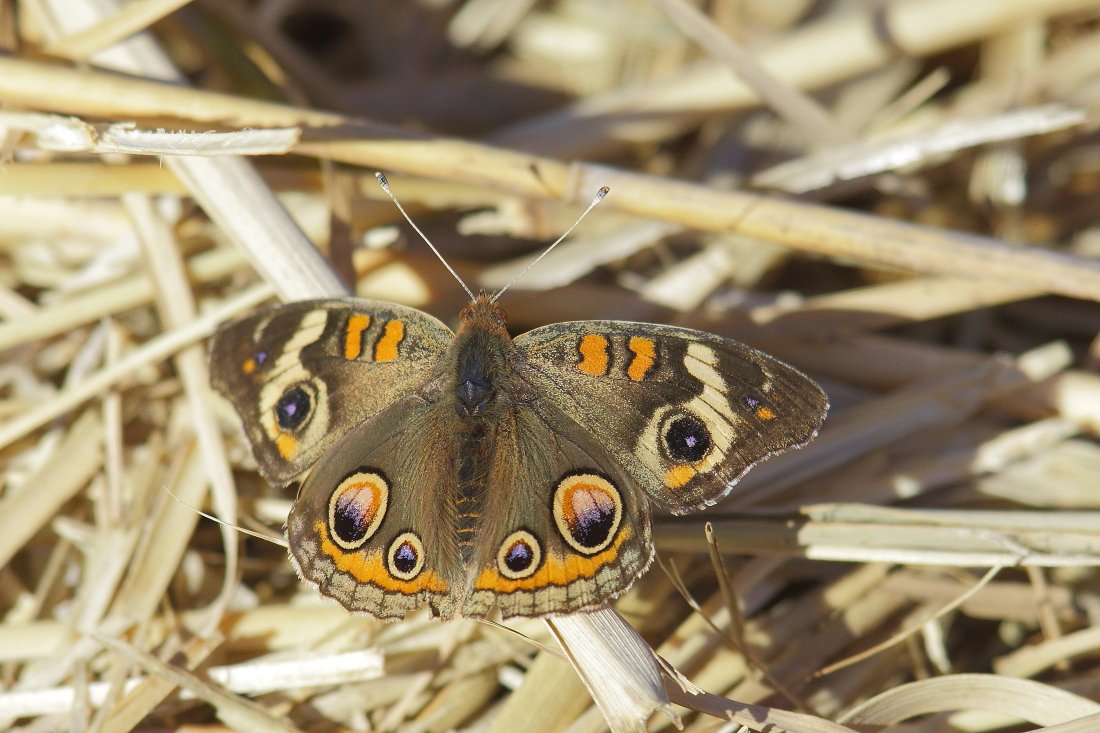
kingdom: Animalia
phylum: Arthropoda
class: Insecta
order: Lepidoptera
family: Nymphalidae
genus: Junonia
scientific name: Junonia coenia
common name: Common Buckeye
